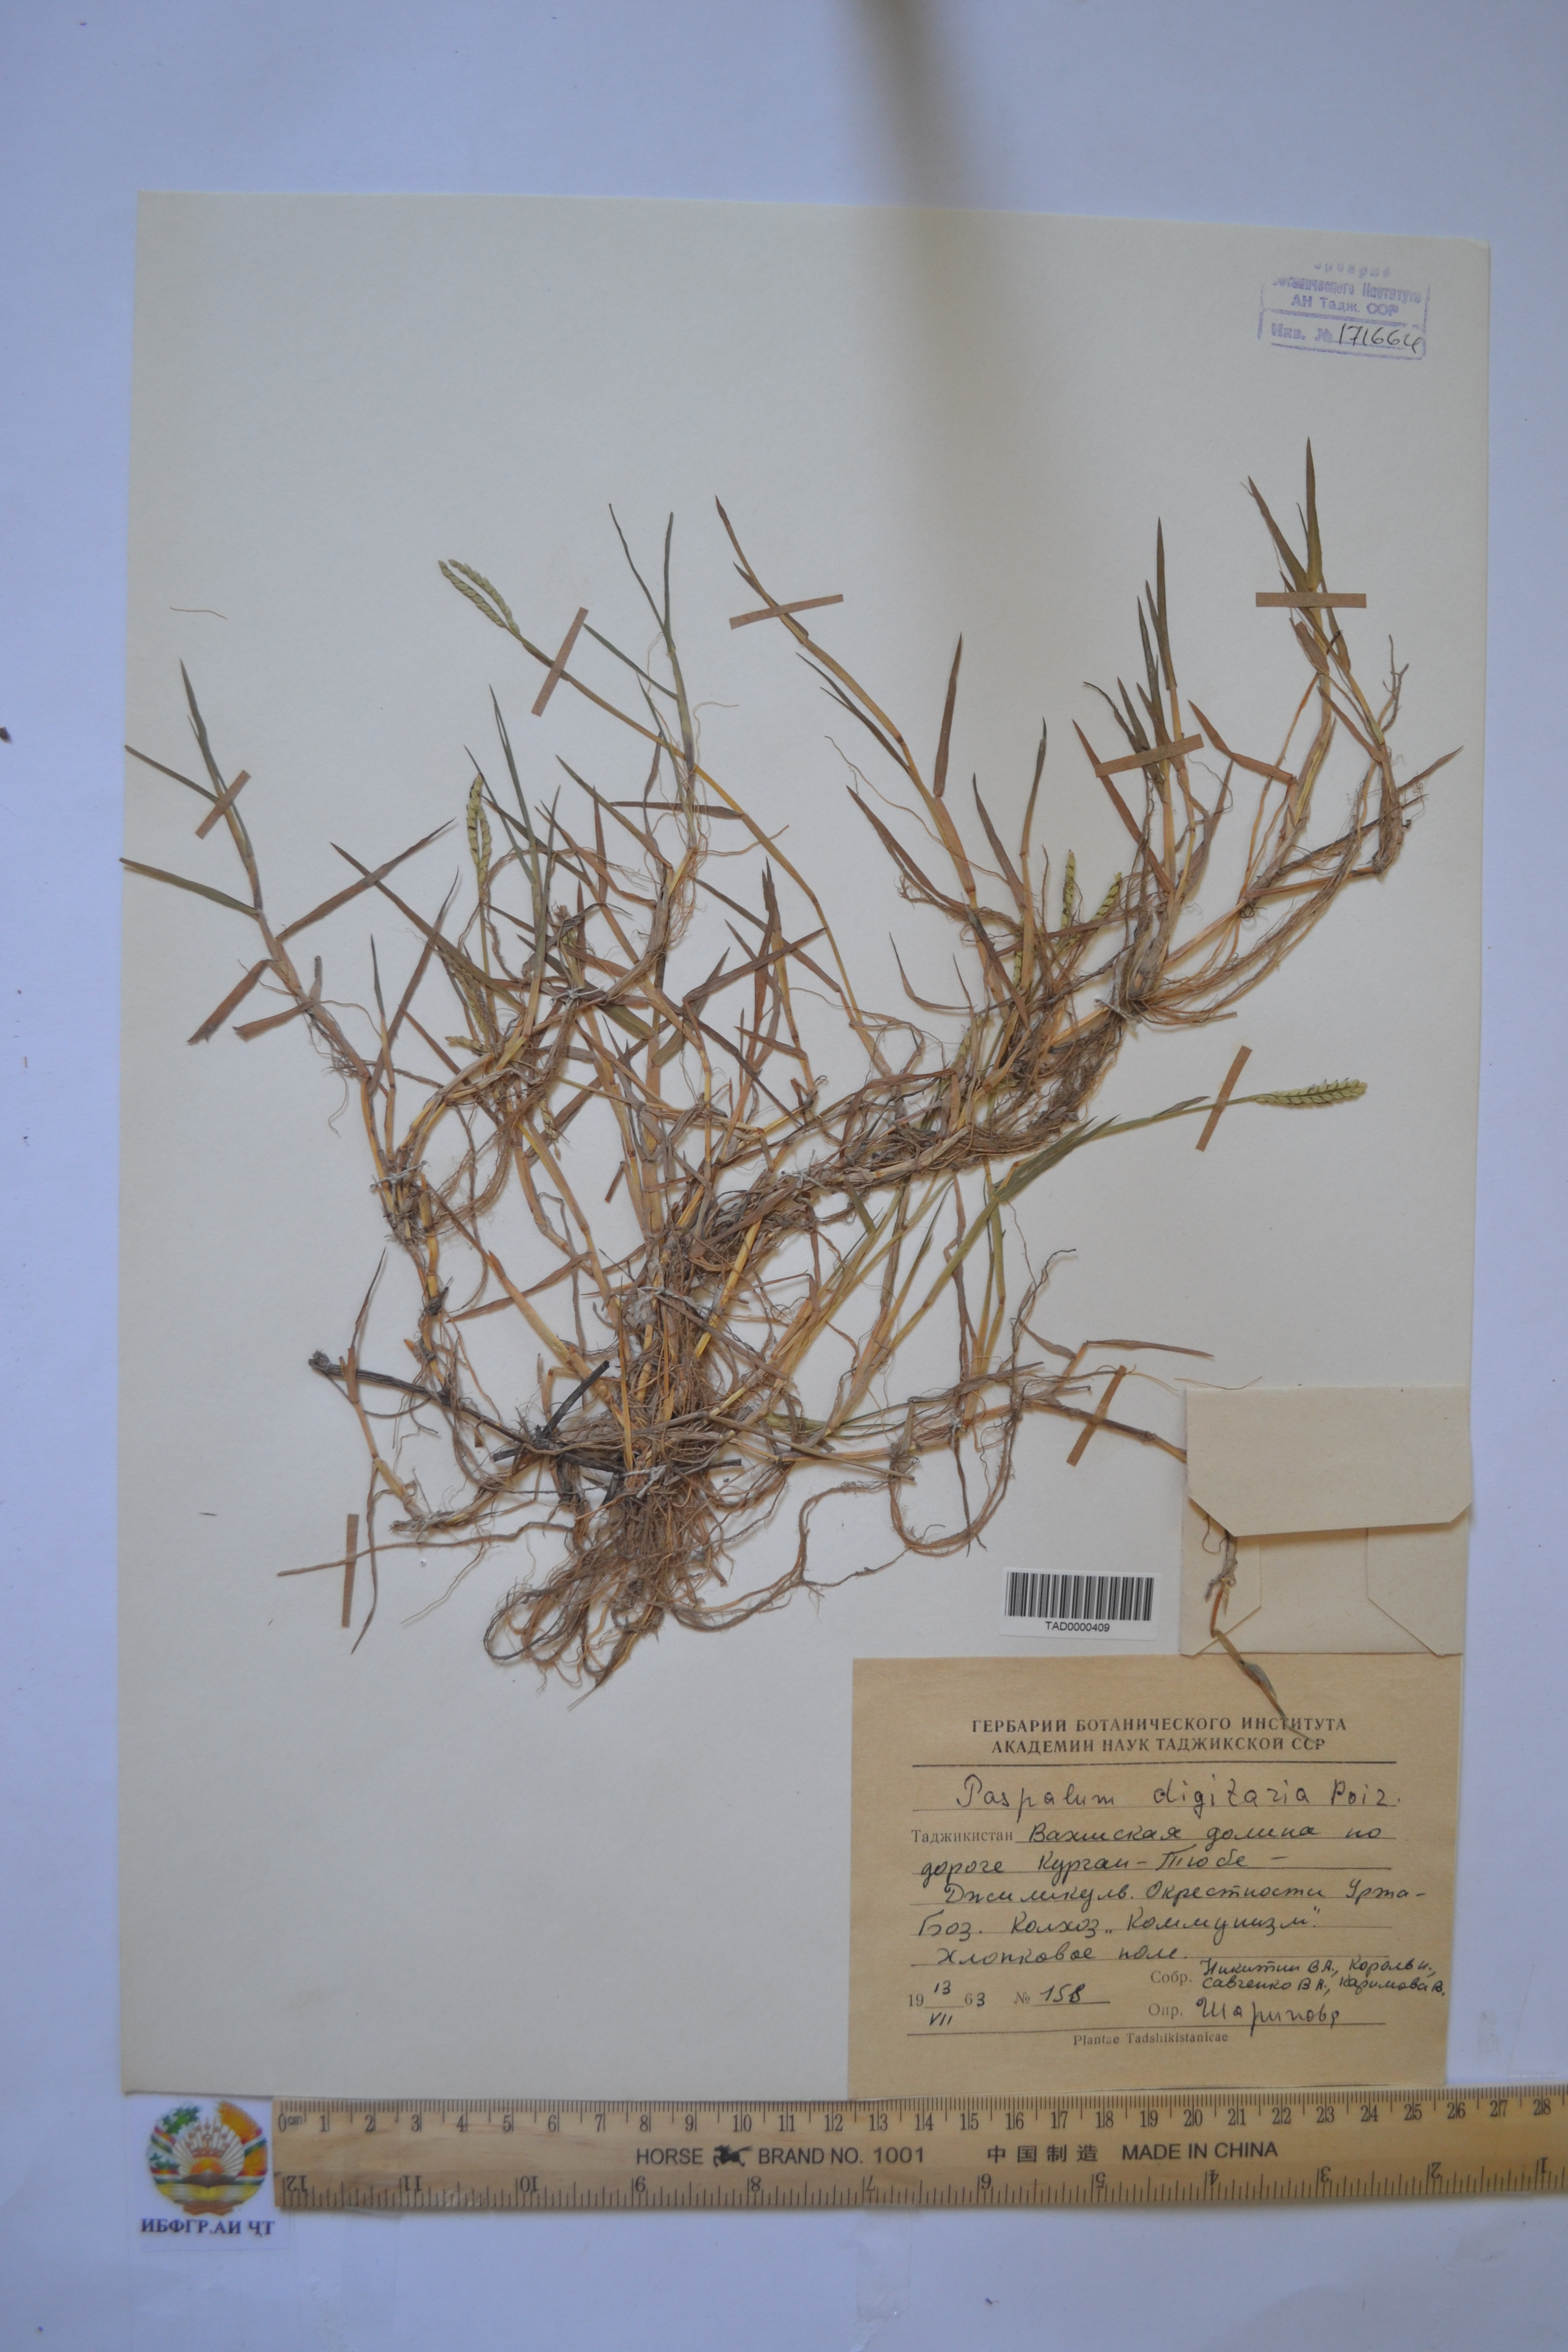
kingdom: Plantae
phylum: Tracheophyta
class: Liliopsida
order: Poales
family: Poaceae
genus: Paspalum
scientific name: Paspalum distichum
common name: Knotgrass
